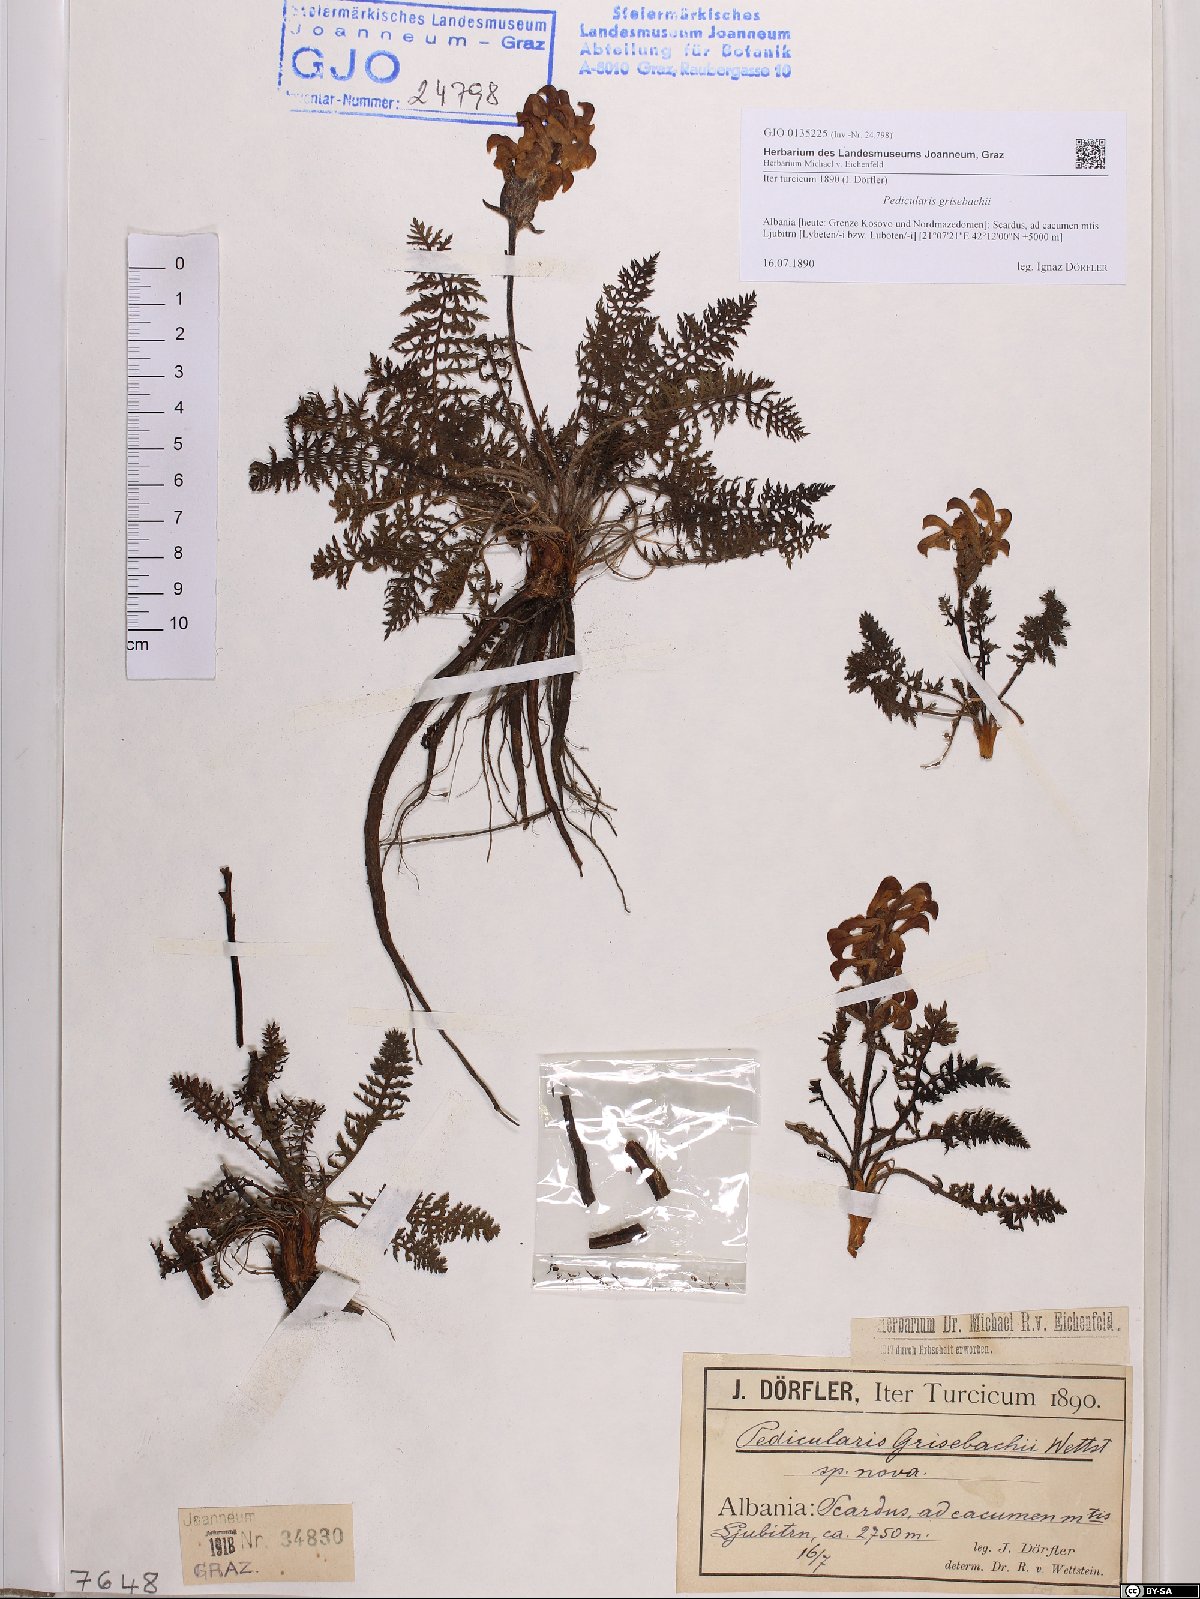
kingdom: Plantae
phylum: Tracheophyta
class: Magnoliopsida
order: Lamiales
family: Orobanchaceae
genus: Pedicularis
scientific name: Pedicularis brachyodonta
